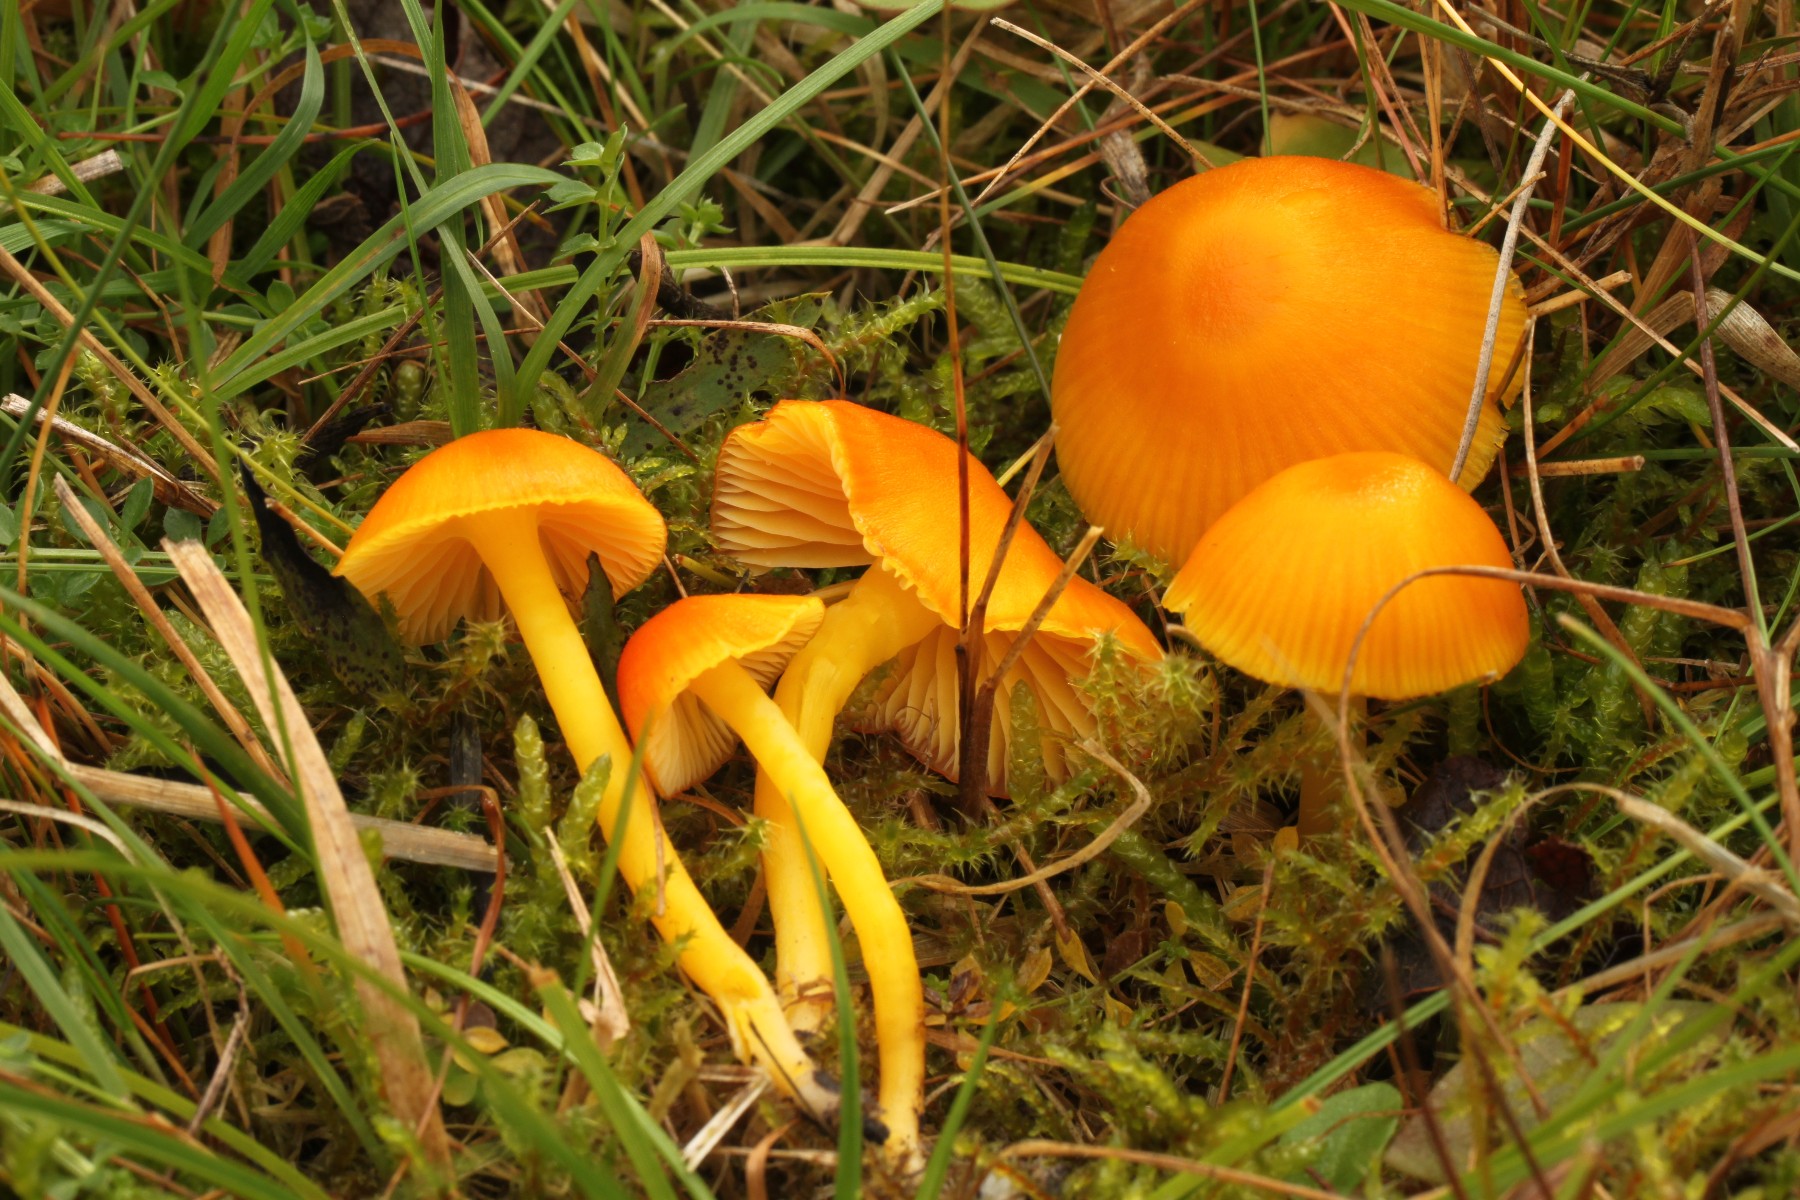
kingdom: Fungi
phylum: Basidiomycota
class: Agaricomycetes
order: Agaricales
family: Hygrophoraceae
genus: Hygrocybe
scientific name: Hygrocybe ceracea
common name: voksgul vokshat
